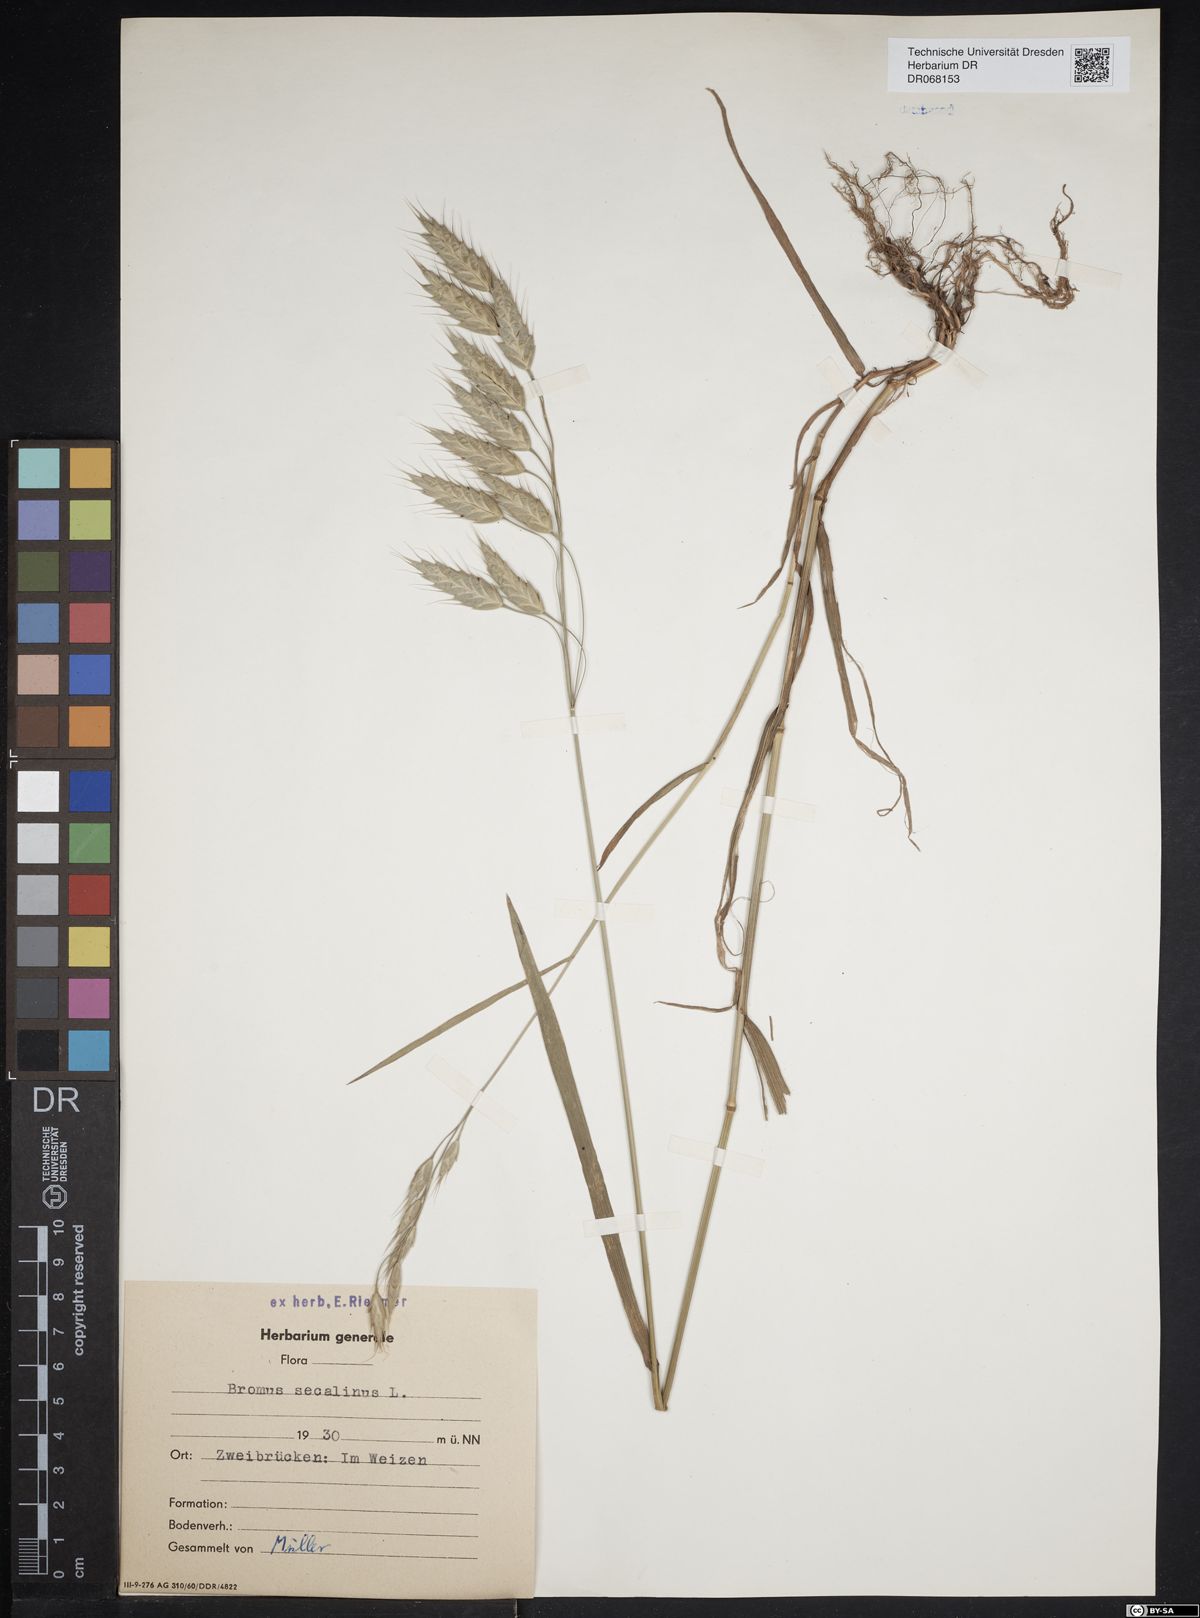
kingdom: Plantae
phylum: Tracheophyta
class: Liliopsida
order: Poales
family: Poaceae
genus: Bromus
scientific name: Bromus secalinus
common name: Rye brome
